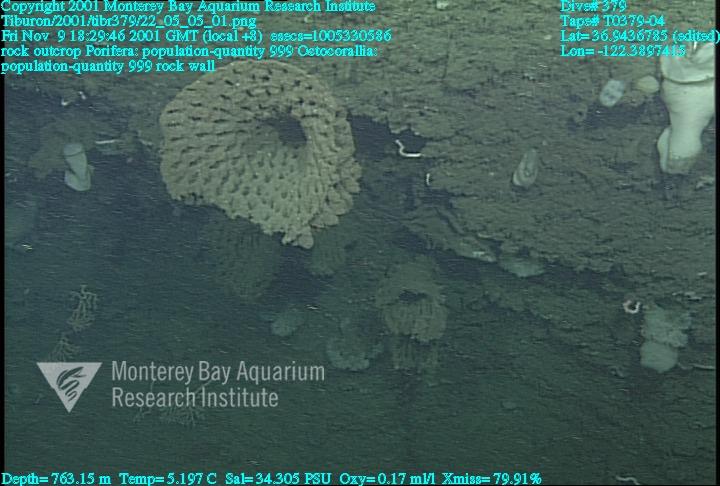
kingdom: Animalia
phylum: Porifera
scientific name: Porifera
